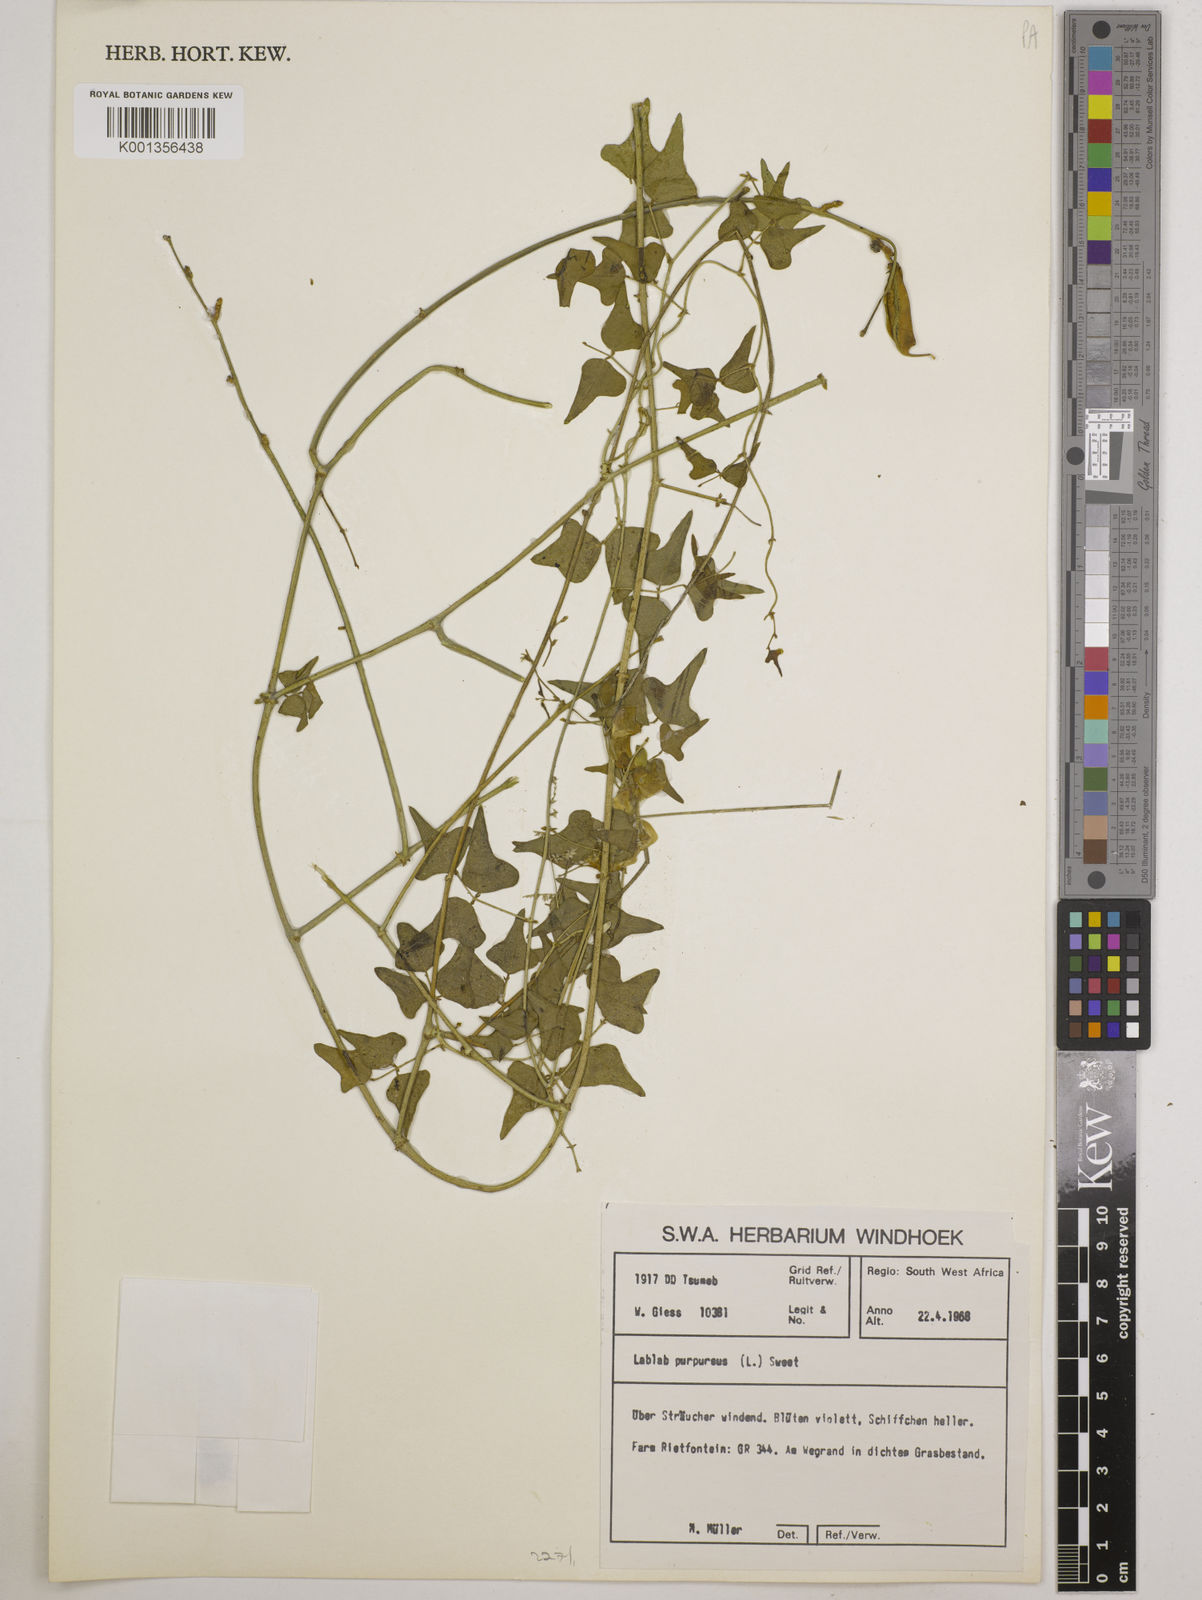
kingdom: Plantae
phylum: Tracheophyta
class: Magnoliopsida
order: Fabales
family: Fabaceae
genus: Lablab
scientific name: Lablab purpureus
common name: Lablab-bean
